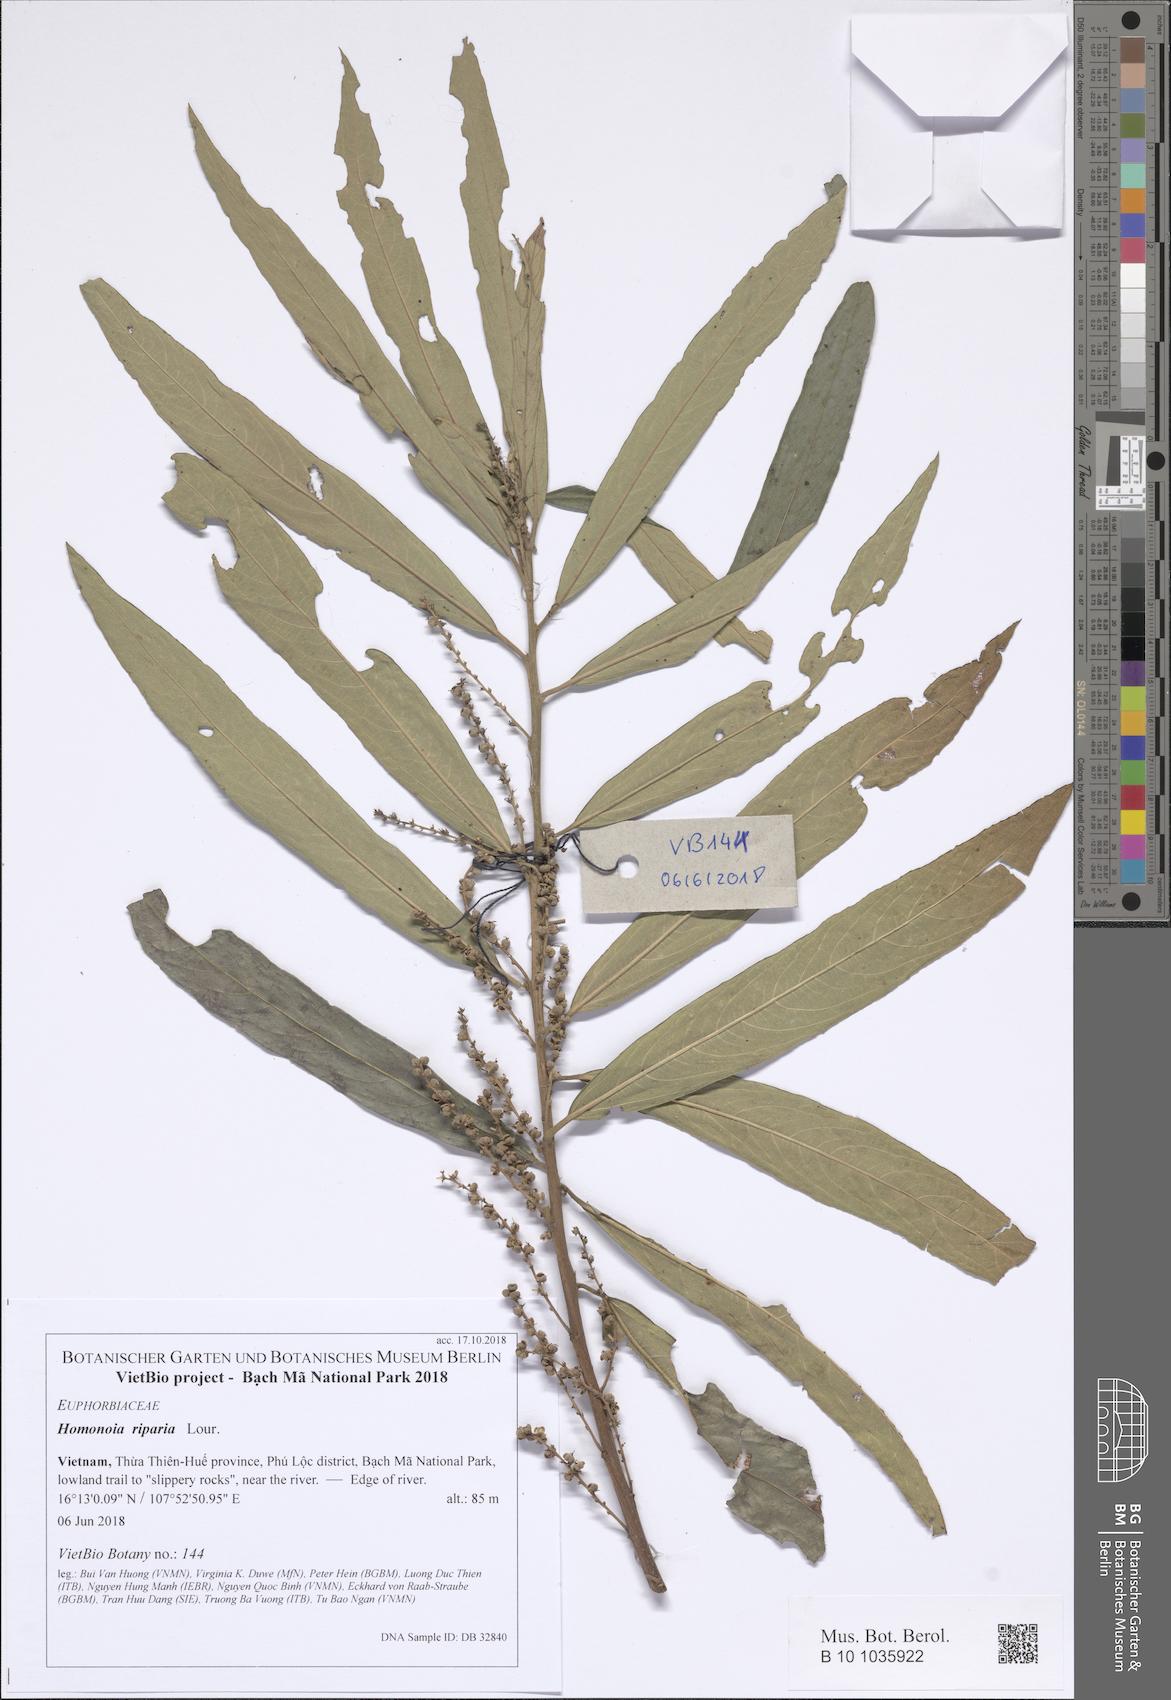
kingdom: Plantae
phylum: Tracheophyta
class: Magnoliopsida
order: Malpighiales
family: Euphorbiaceae
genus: Homonoia
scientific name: Homonoia riparia
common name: Willow-leaved water croton
